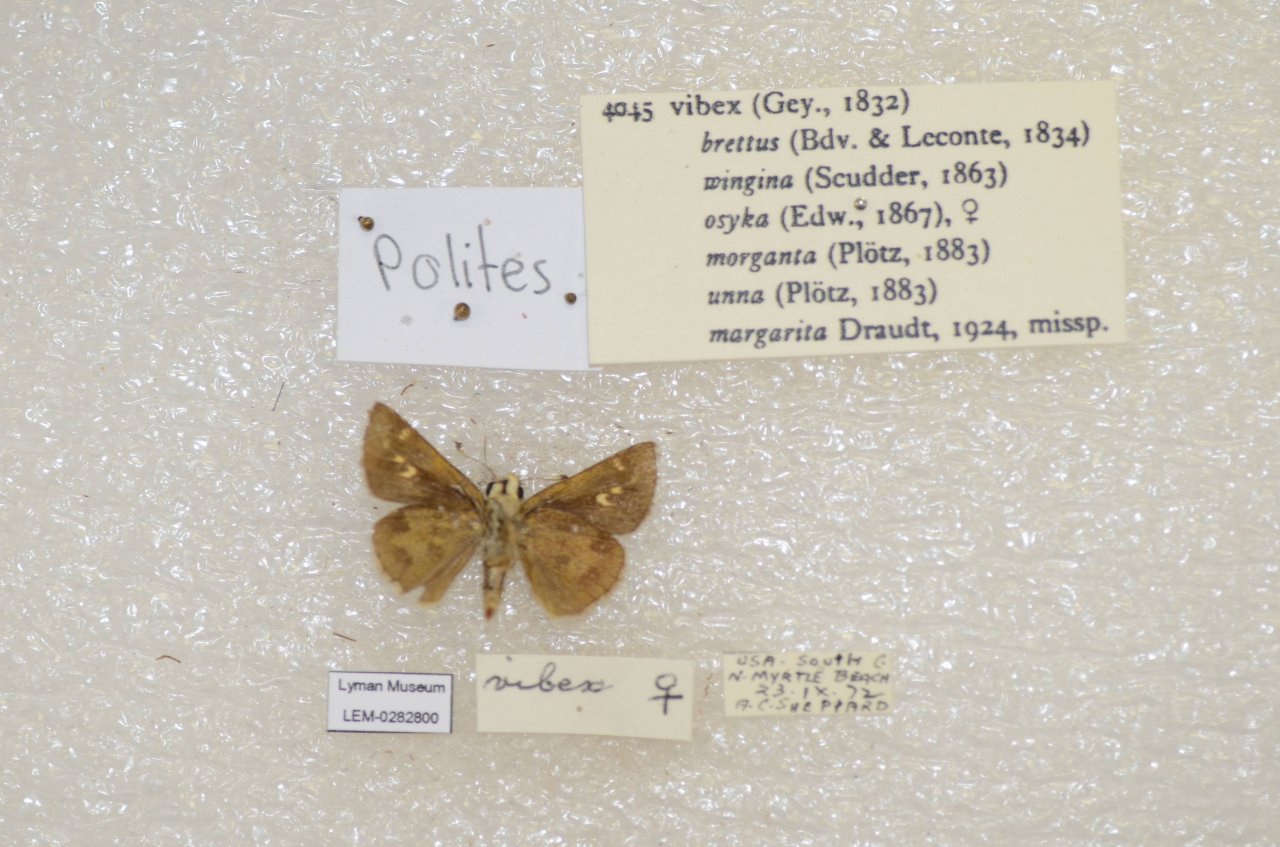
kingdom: Animalia
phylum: Arthropoda
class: Insecta
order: Lepidoptera
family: Hesperiidae
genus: Polites
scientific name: Polites vibex
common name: Whirlabout
